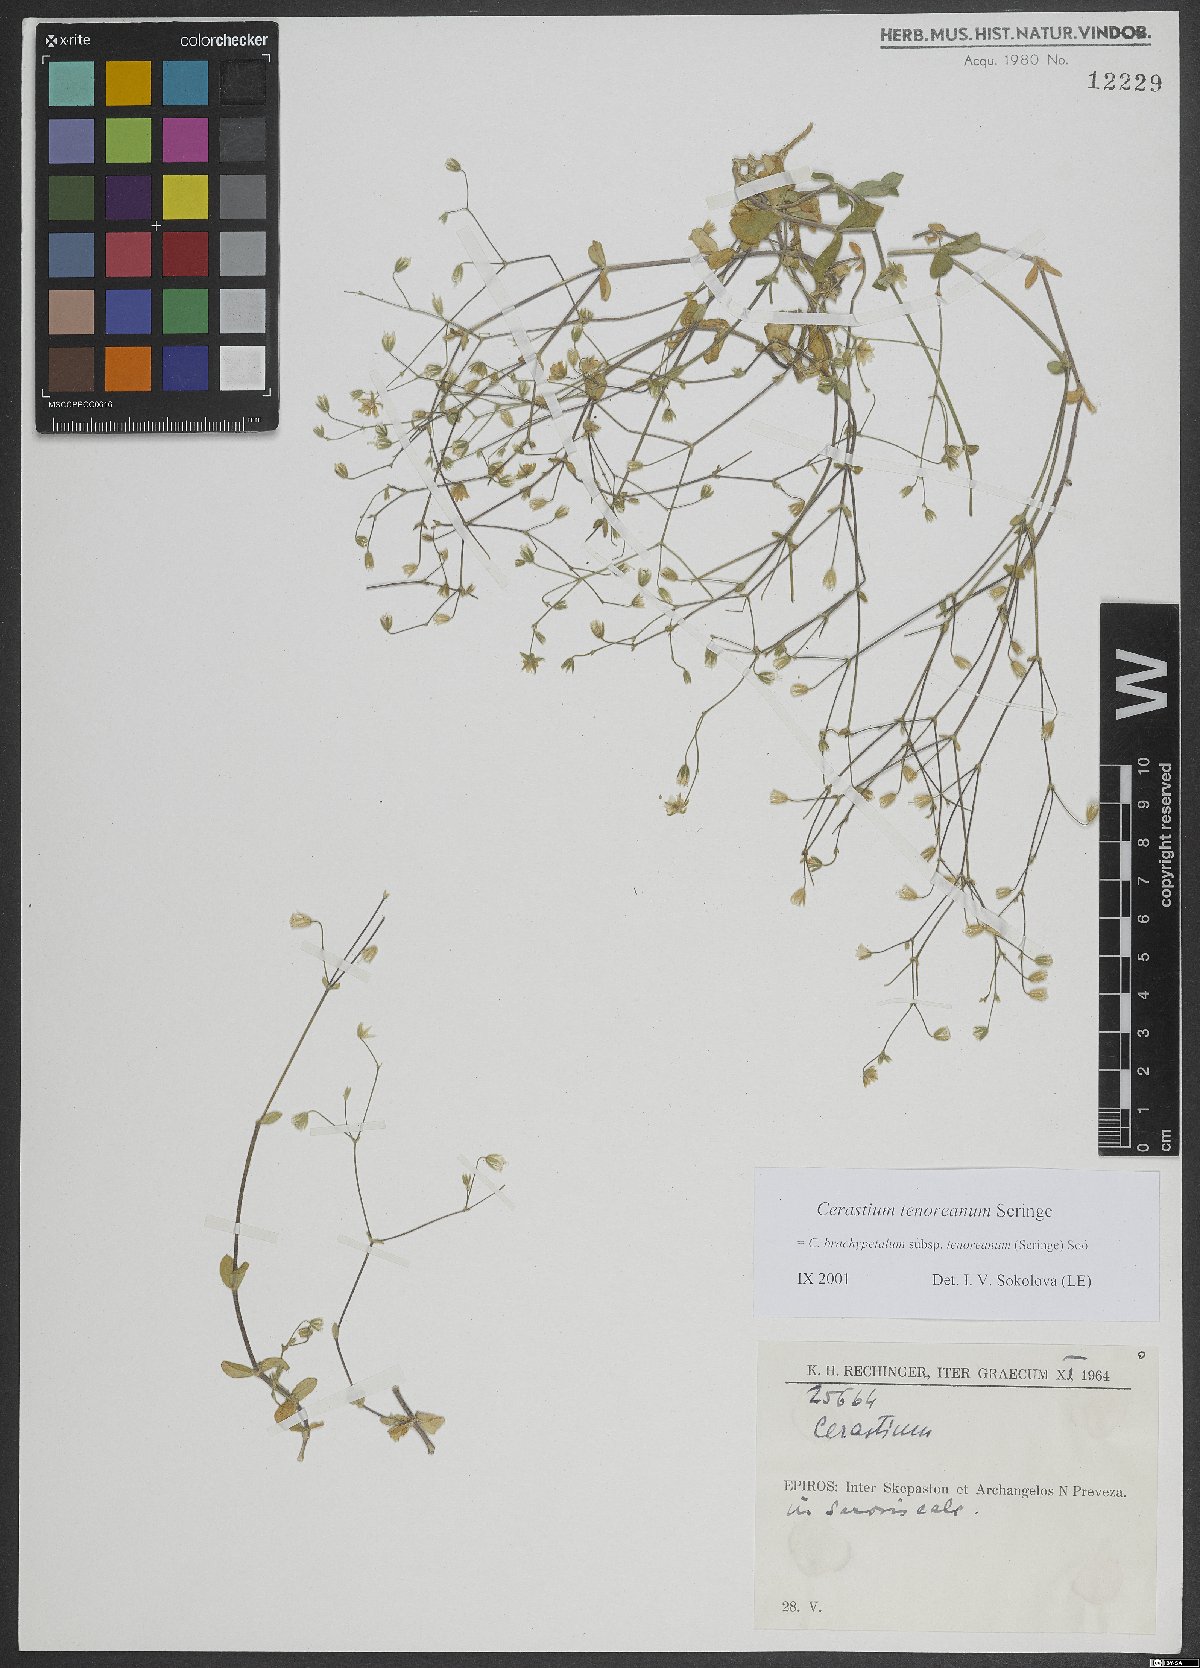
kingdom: Plantae
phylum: Tracheophyta
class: Magnoliopsida
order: Caryophyllales
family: Caryophyllaceae
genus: Cerastium
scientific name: Cerastium tenoreanum
